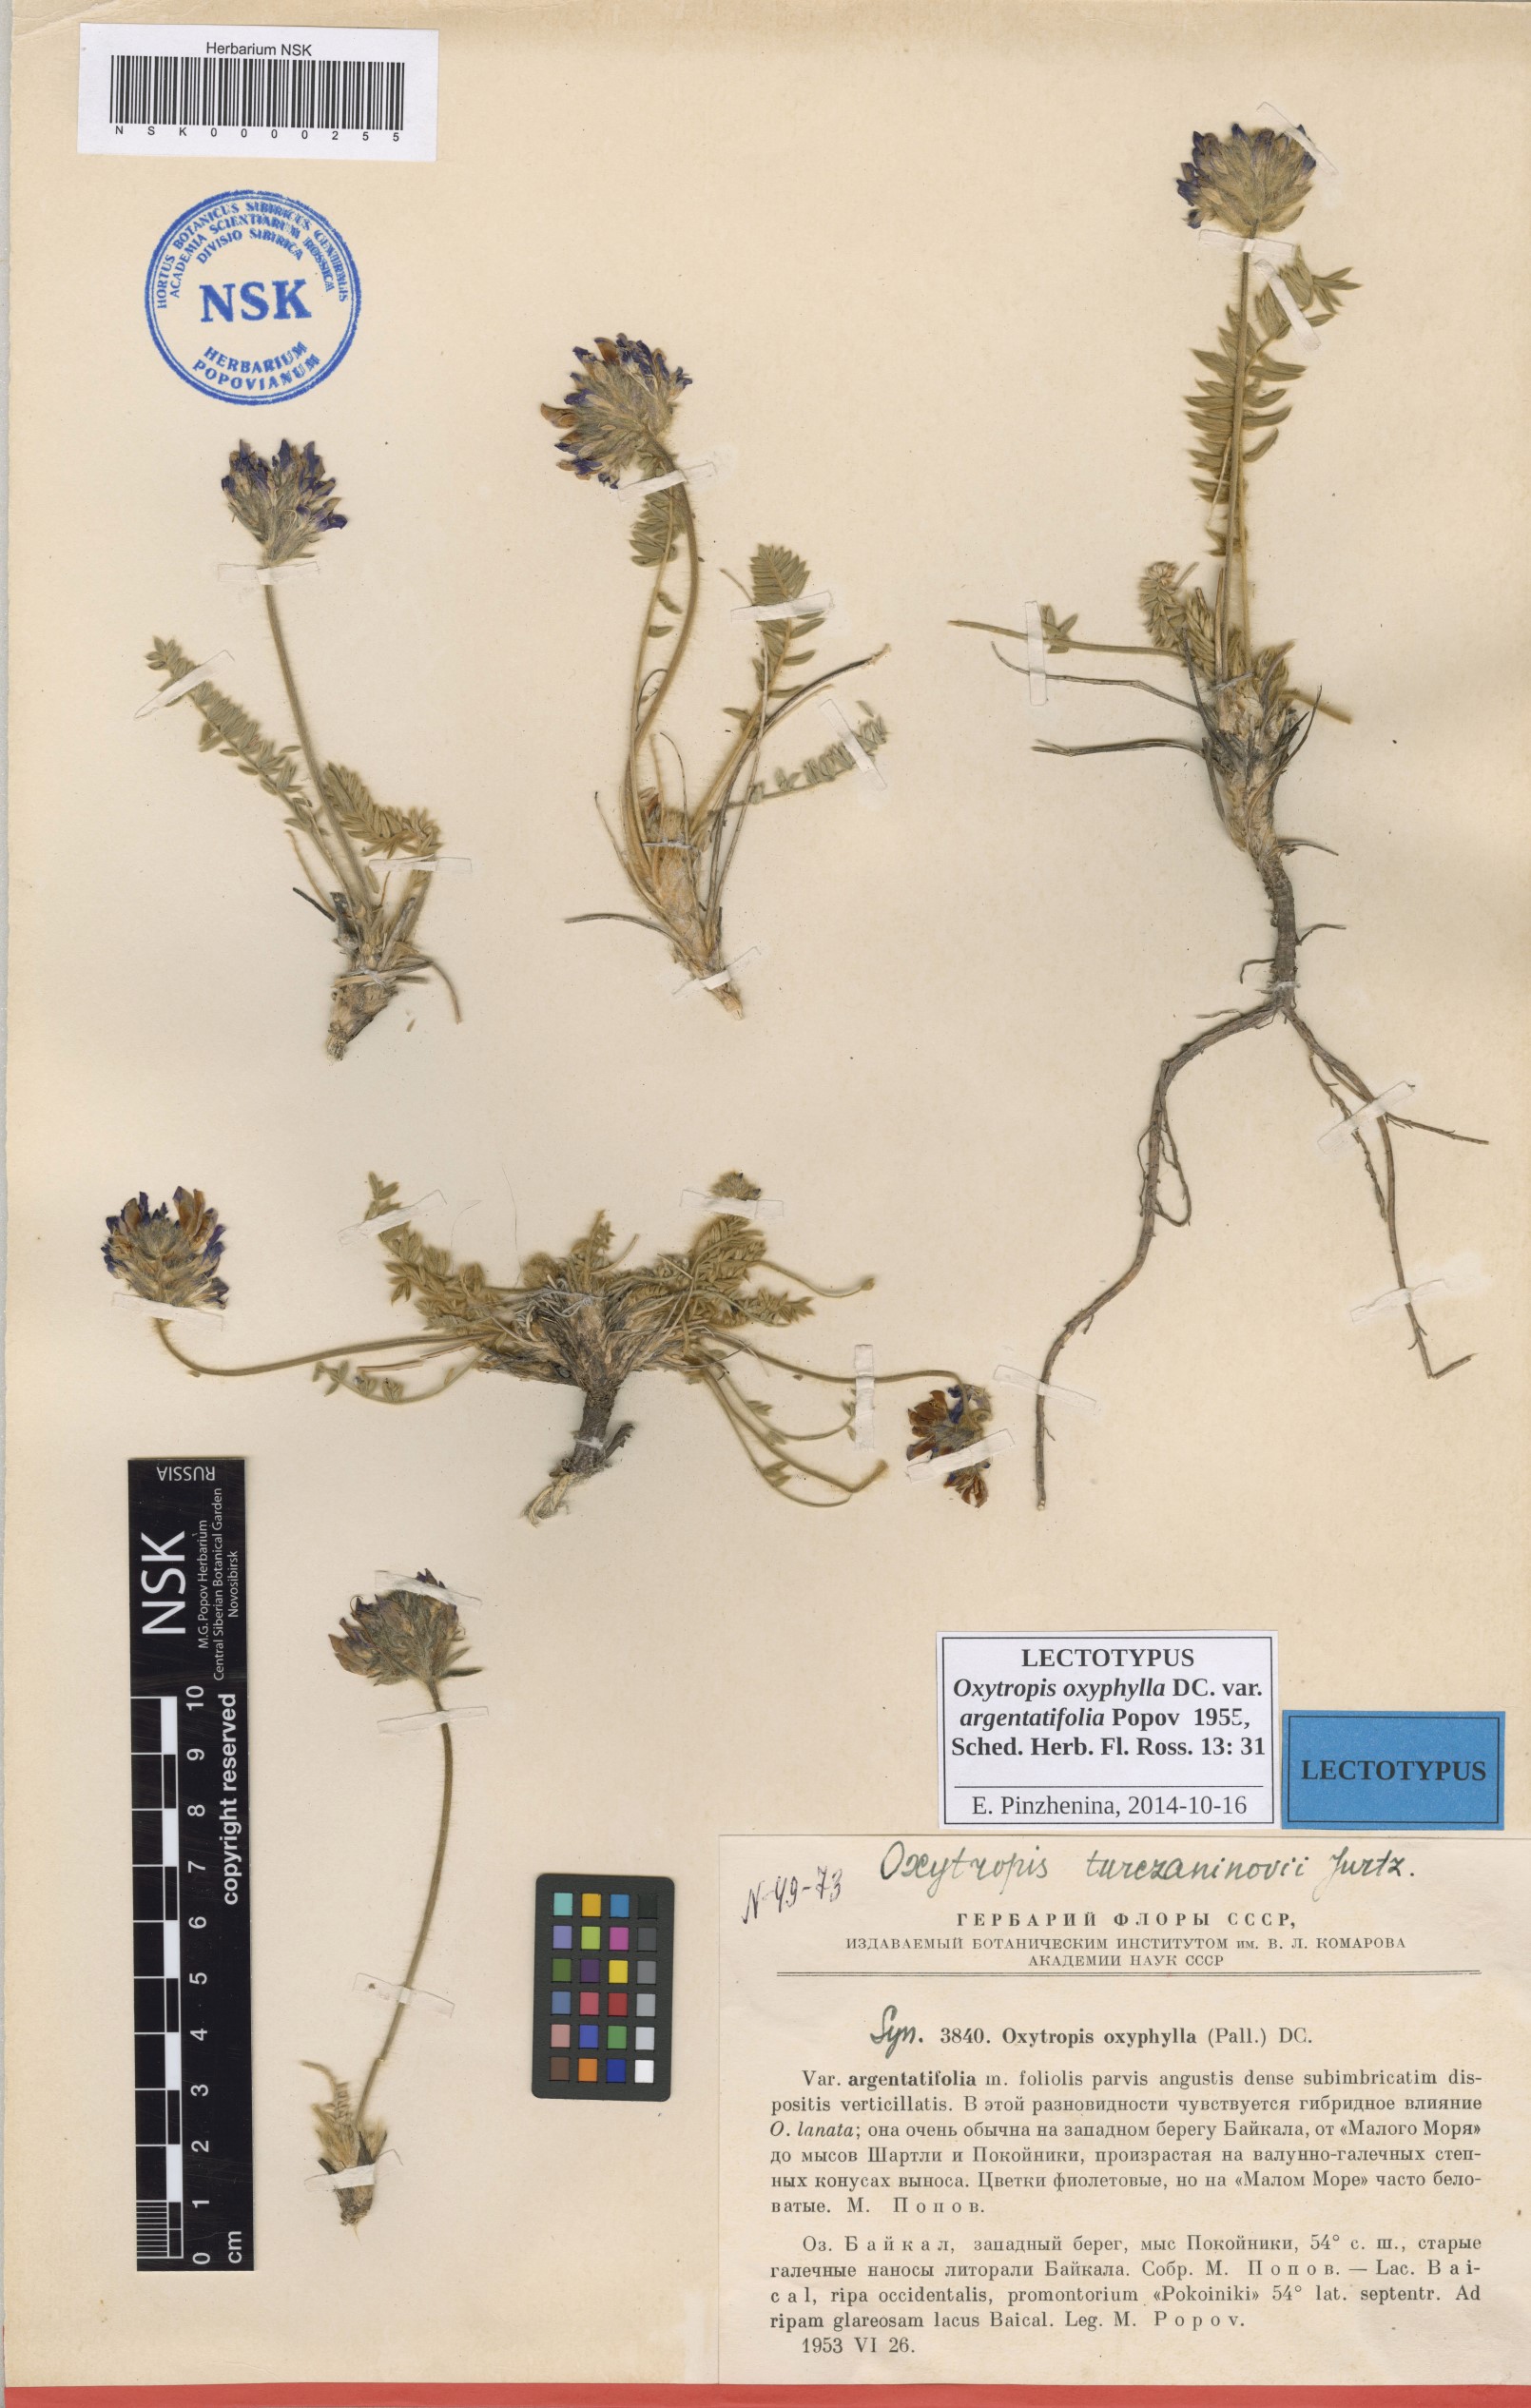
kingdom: Plantae
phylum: Tracheophyta
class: Magnoliopsida
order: Fabales
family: Fabaceae
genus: Oxytropis
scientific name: Oxytropis oxyphylla
